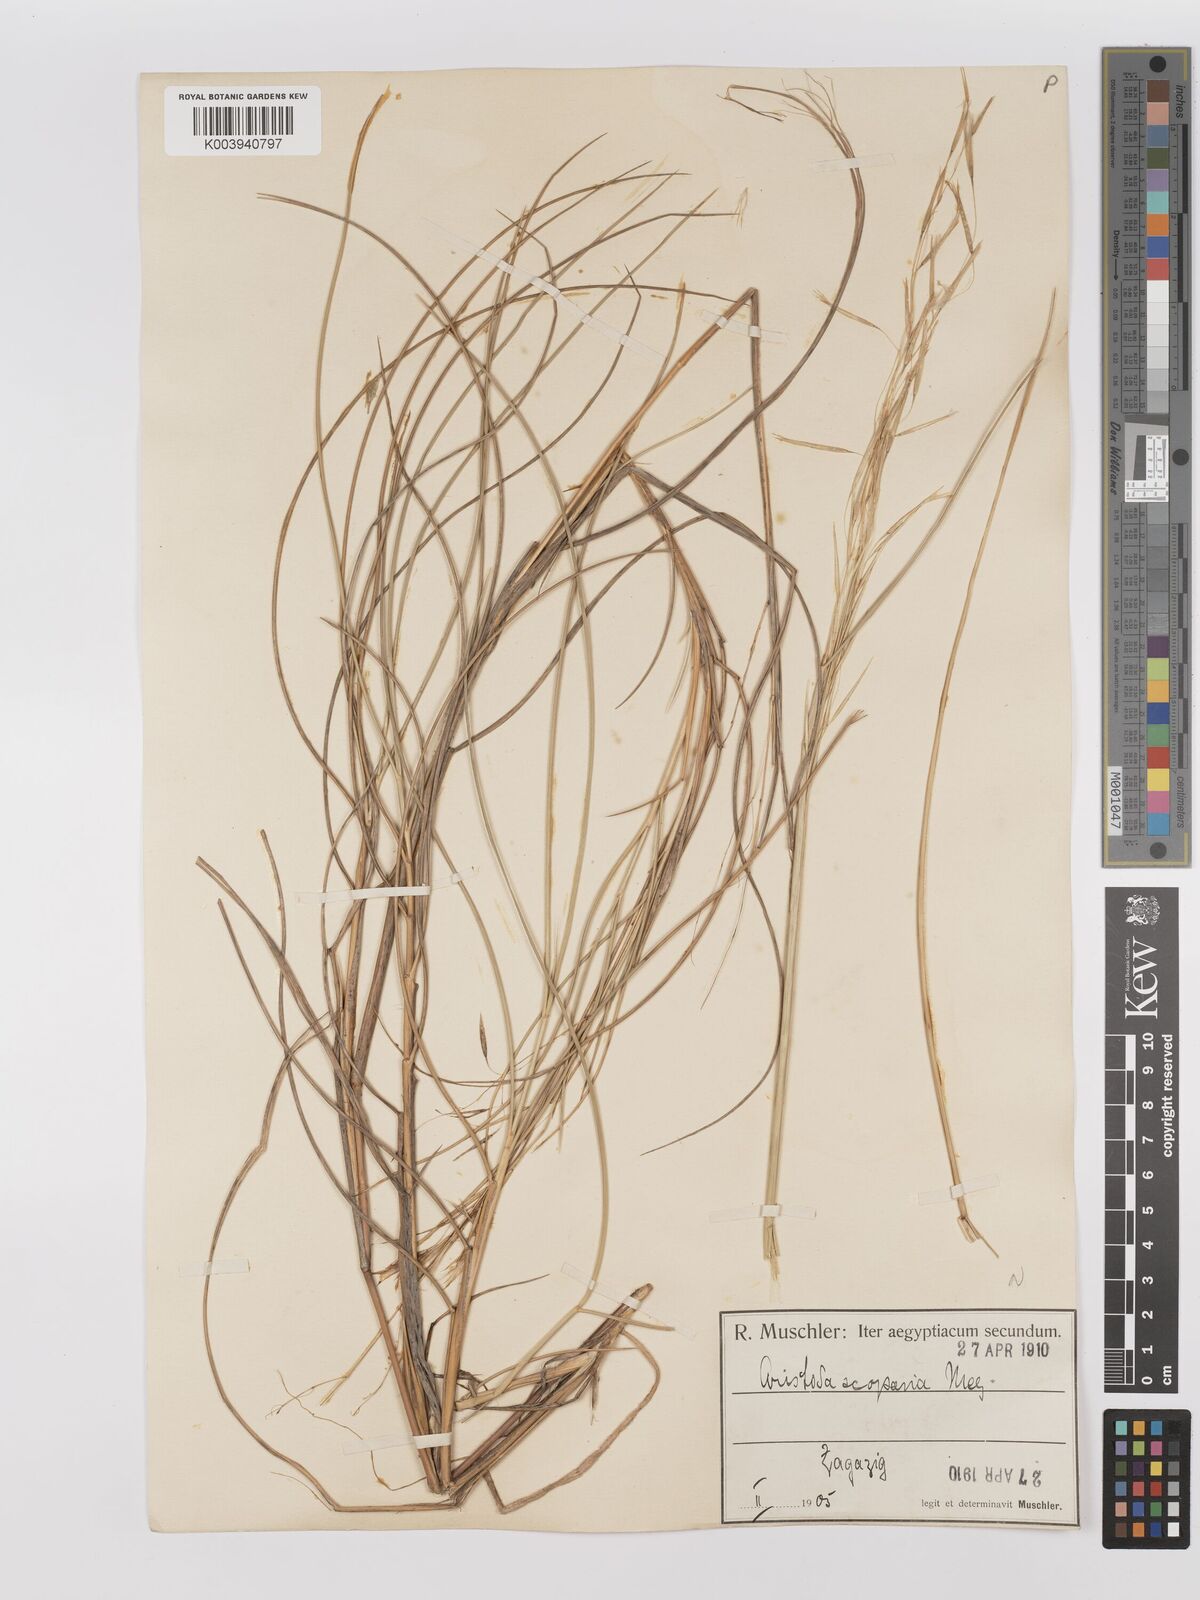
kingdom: Plantae
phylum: Tracheophyta
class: Liliopsida
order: Poales
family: Poaceae
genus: Stipagrostis
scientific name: Stipagrostis scoparia
